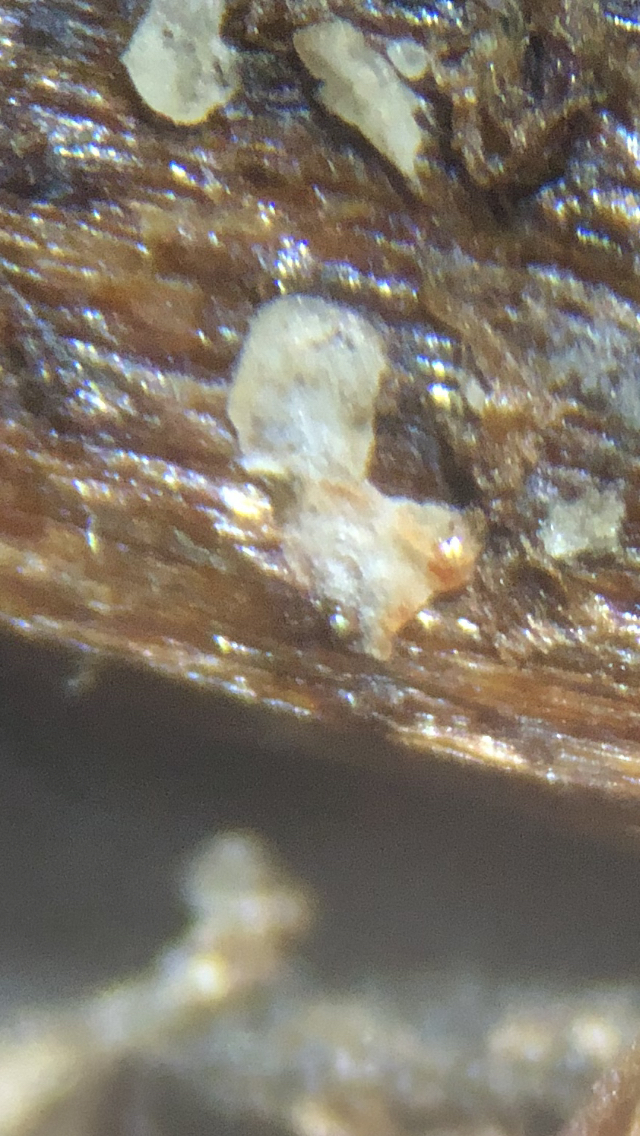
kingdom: Fungi
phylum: Ascomycota
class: Leotiomycetes
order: Helotiales
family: Pezizellaceae
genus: Psilachnum
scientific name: Psilachnum chrysostigmum
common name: gulnende hårskive
